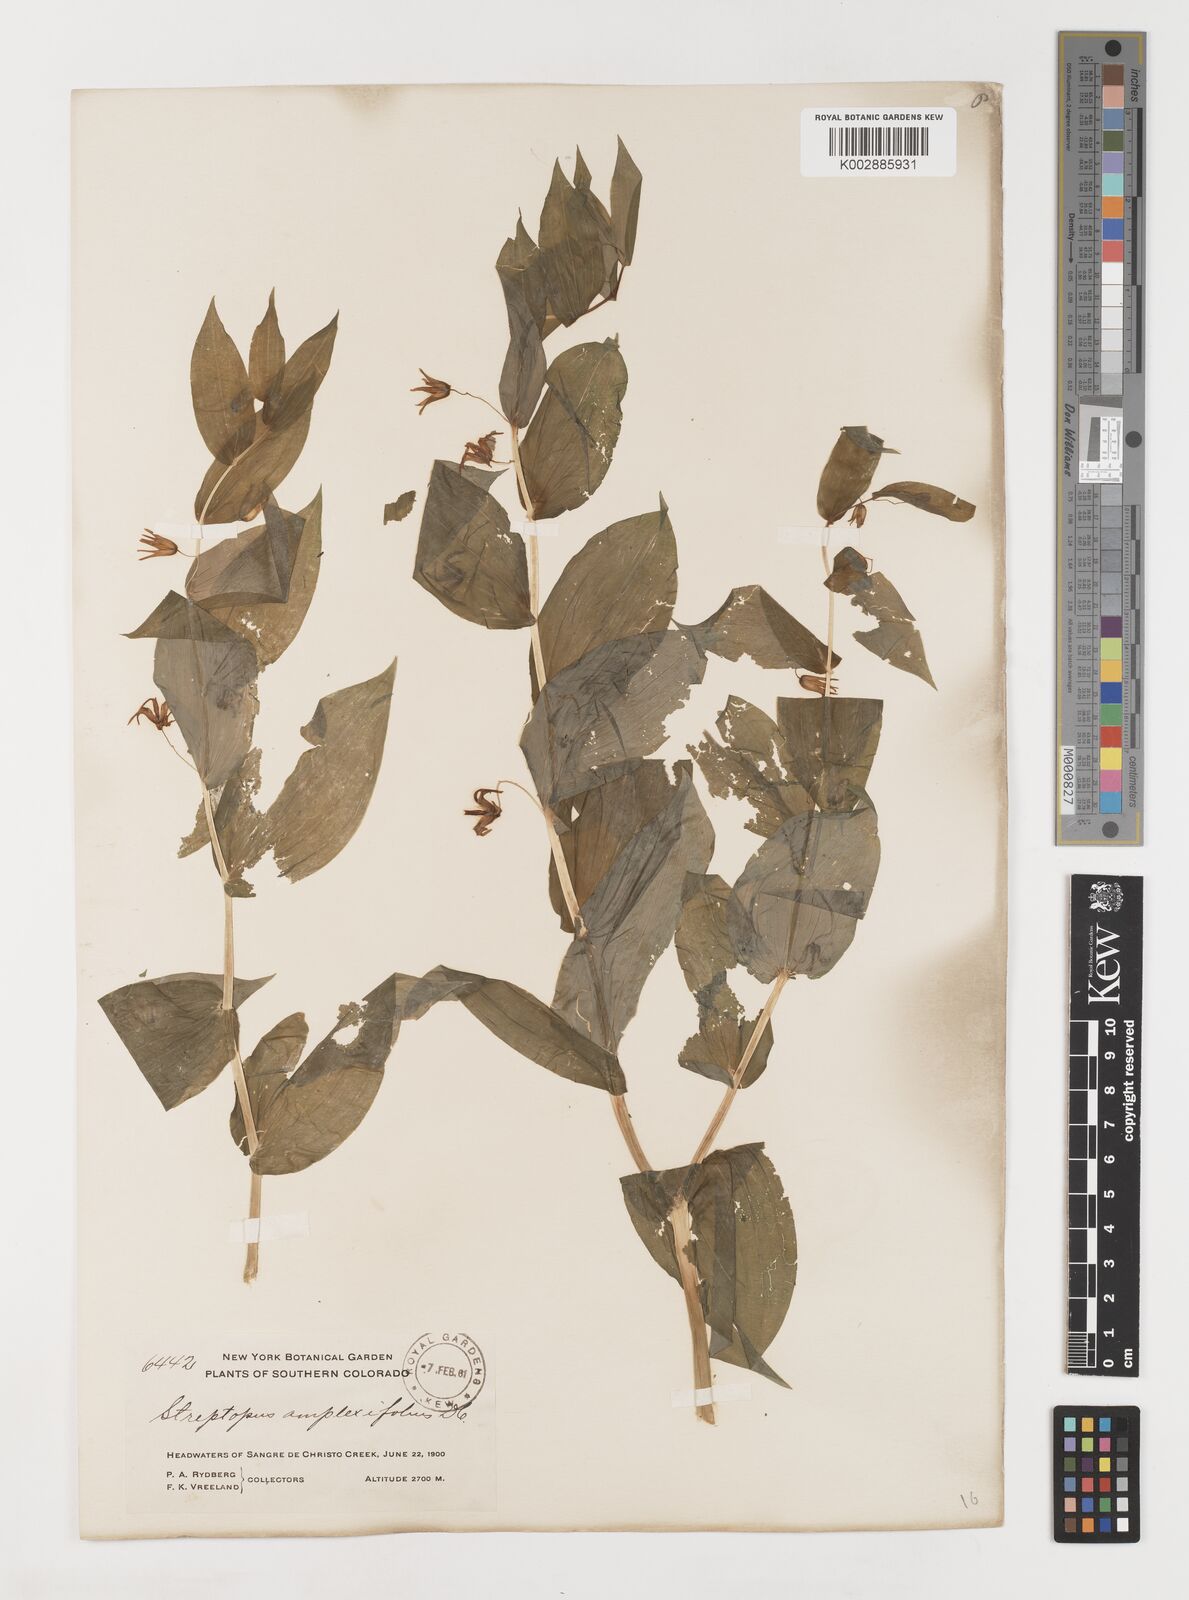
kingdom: Plantae
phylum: Tracheophyta
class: Liliopsida
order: Liliales
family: Liliaceae
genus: Streptopus
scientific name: Streptopus amplexifolius
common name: Clasp twisted stalk
